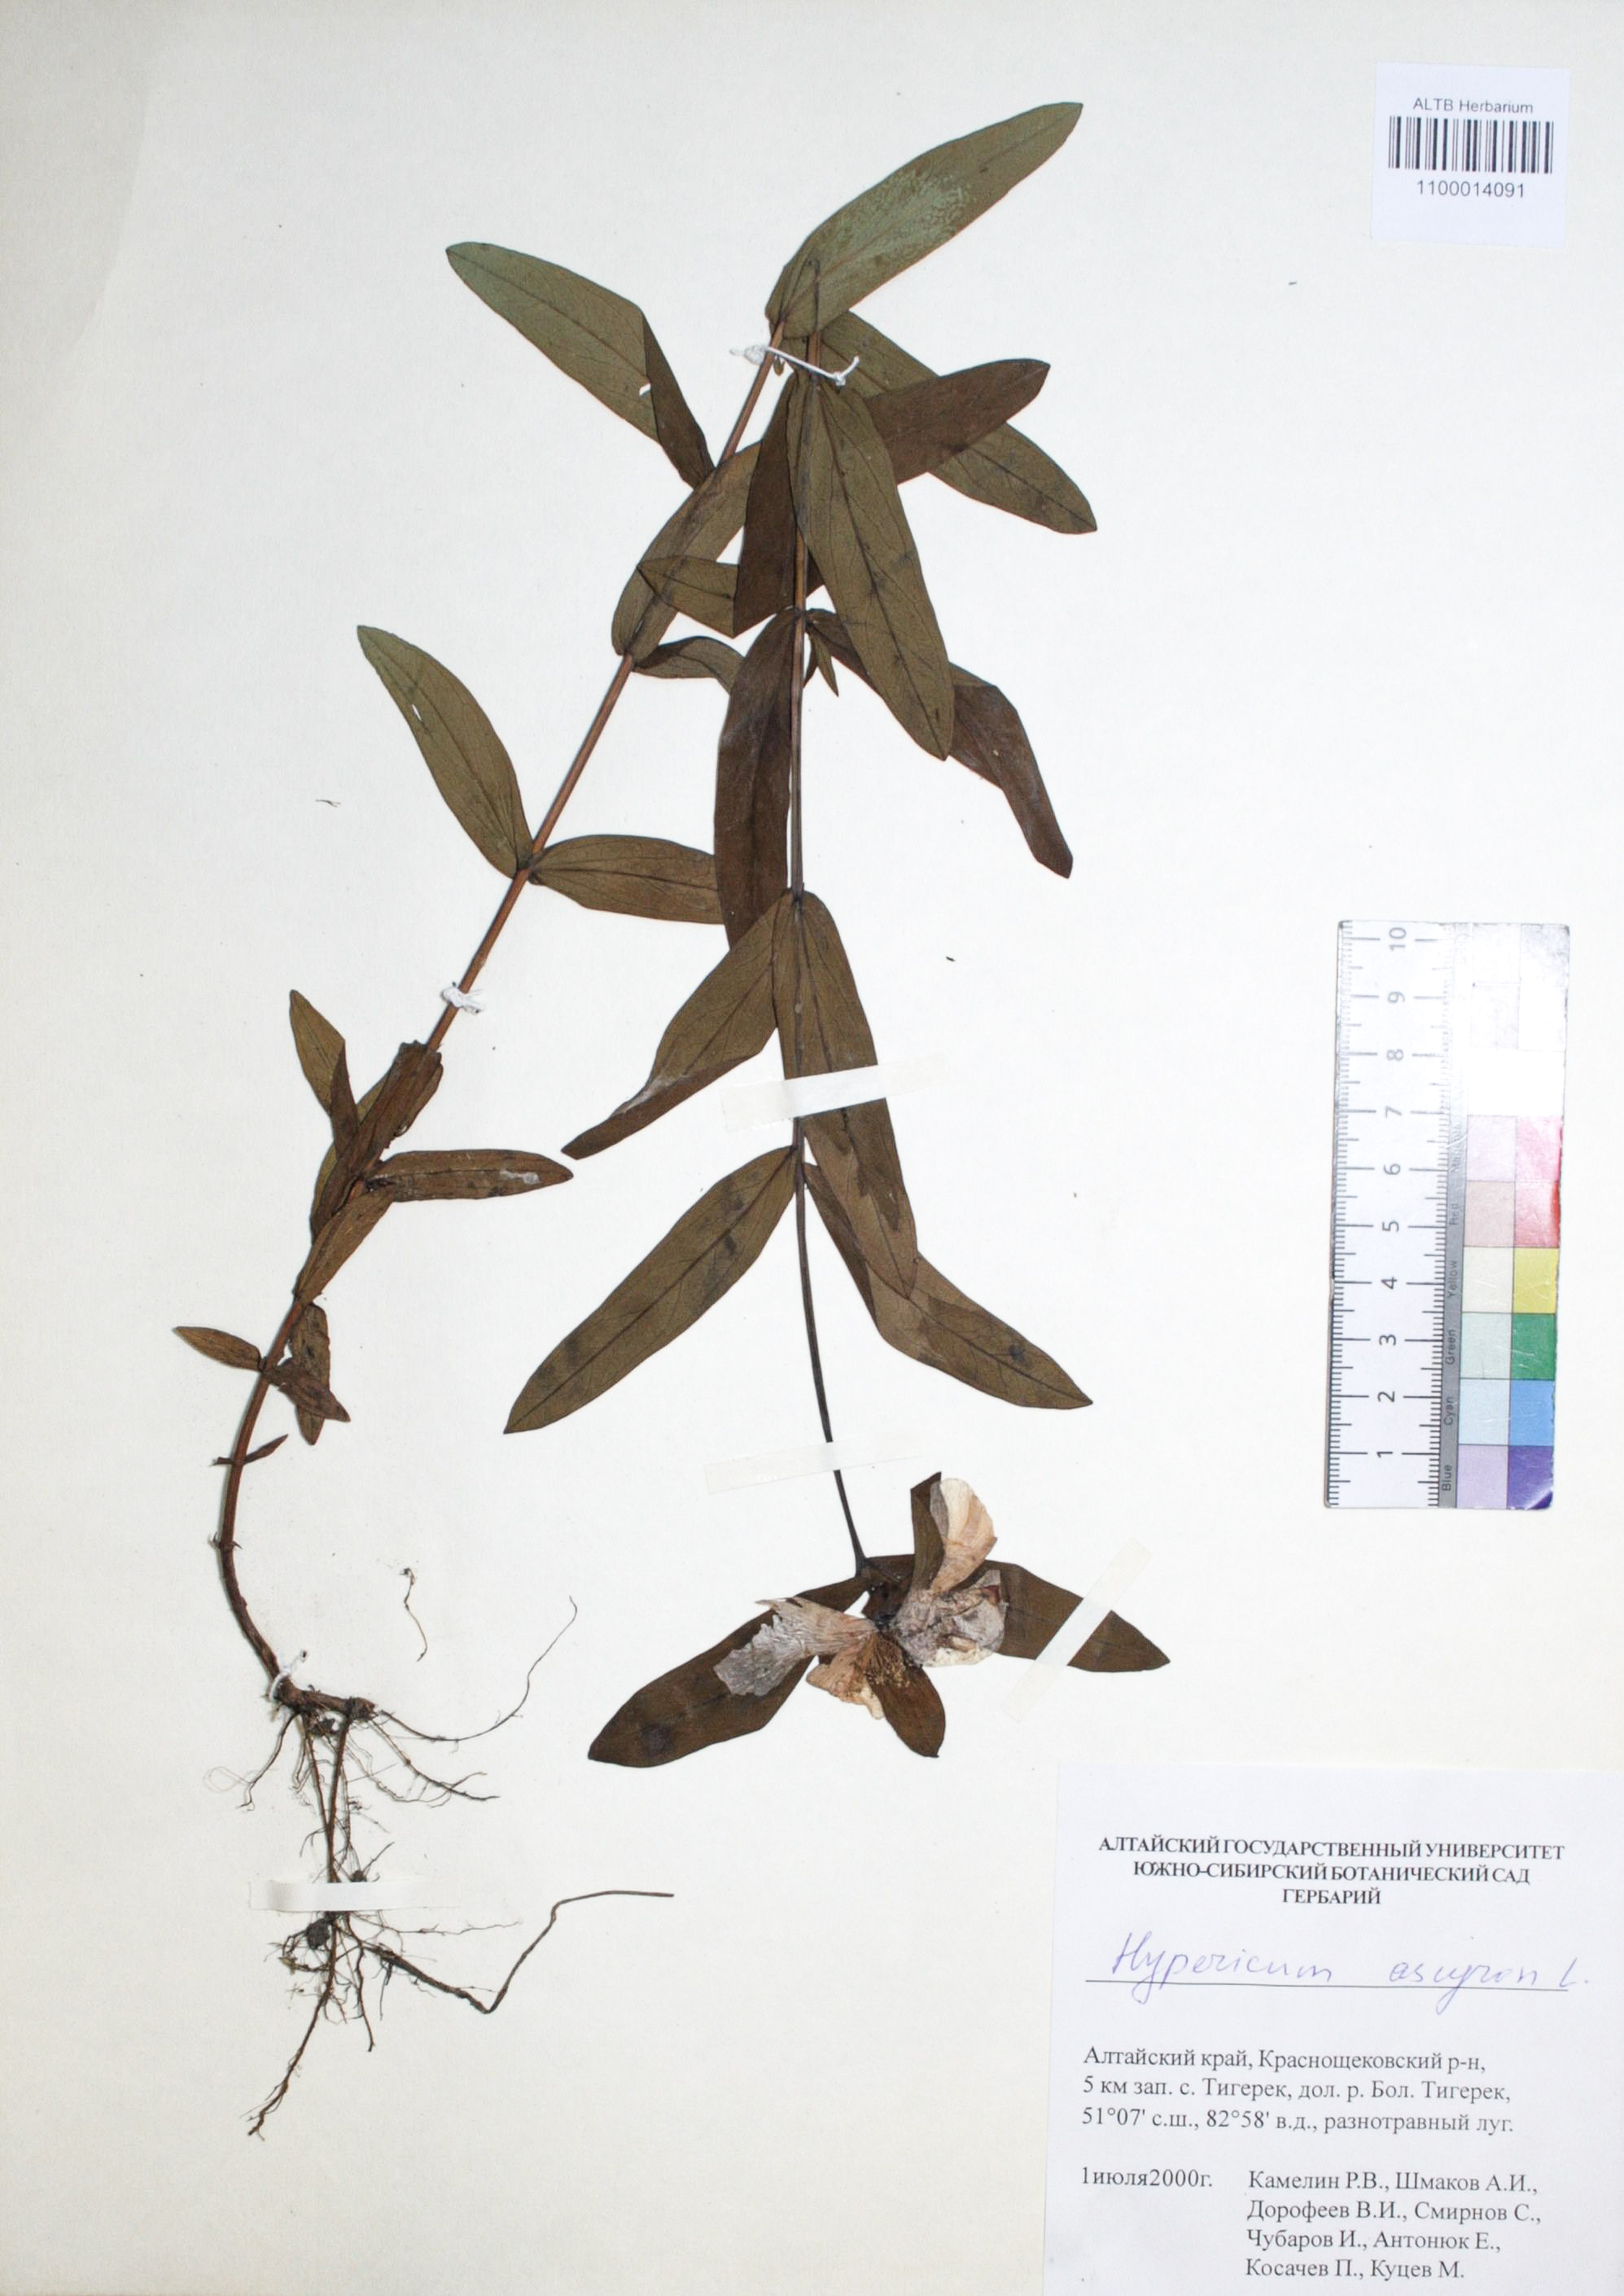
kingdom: Plantae
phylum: Tracheophyta
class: Magnoliopsida
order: Malpighiales
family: Hypericaceae
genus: Hypericum
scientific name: Hypericum ascyron
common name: Giant st. john's-wort
